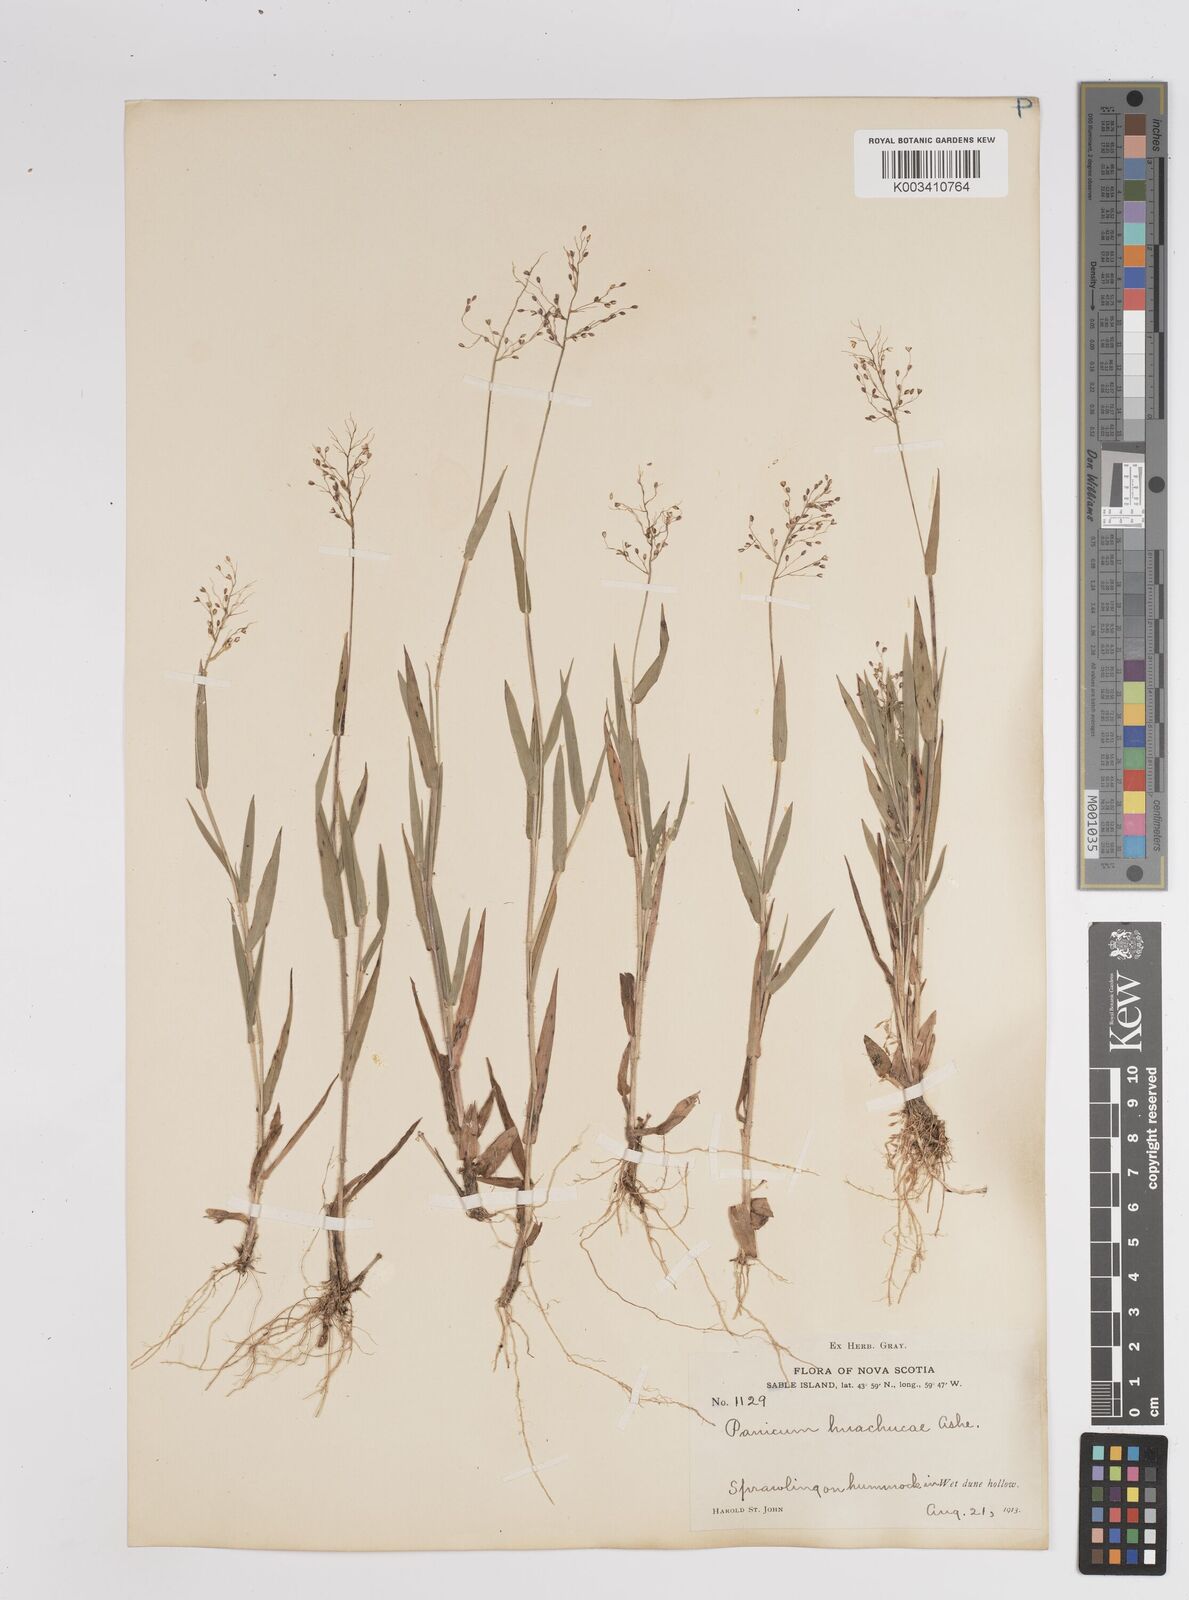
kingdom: Plantae
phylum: Tracheophyta
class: Liliopsida
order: Poales
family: Poaceae
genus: Dichanthelium
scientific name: Dichanthelium lanuginosum
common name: Woolly panicgrass
